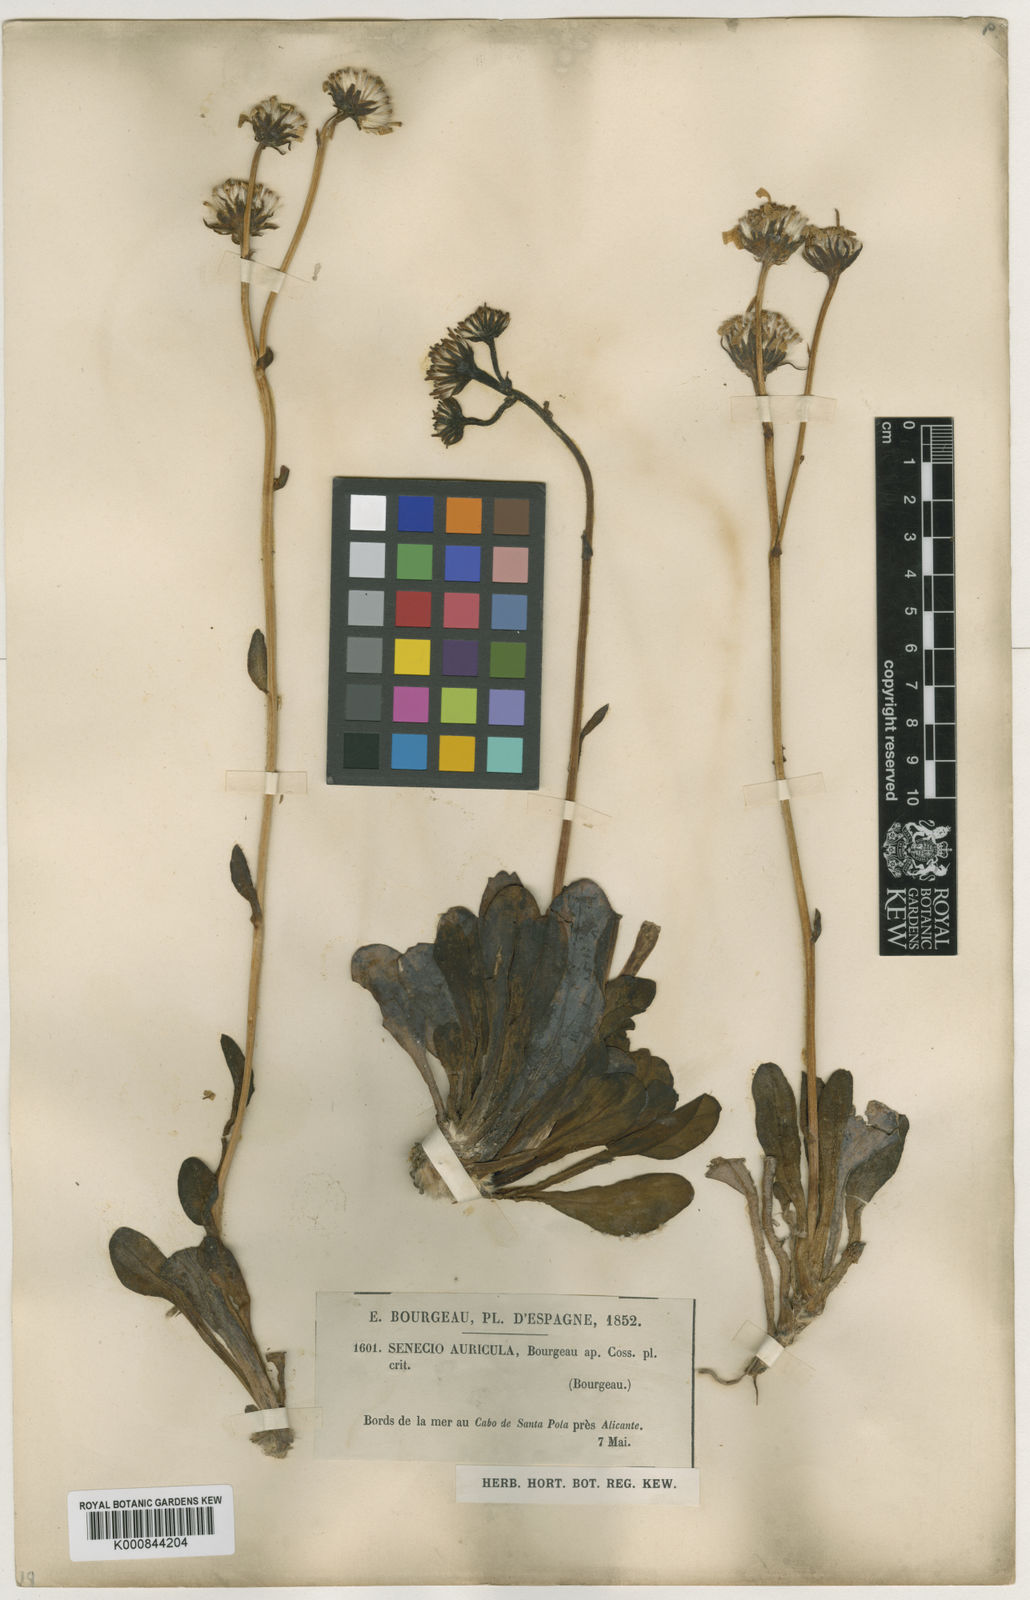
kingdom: Plantae
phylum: Tracheophyta
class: Magnoliopsida
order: Asterales
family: Asteraceae
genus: Senecio
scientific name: Senecio auricula
